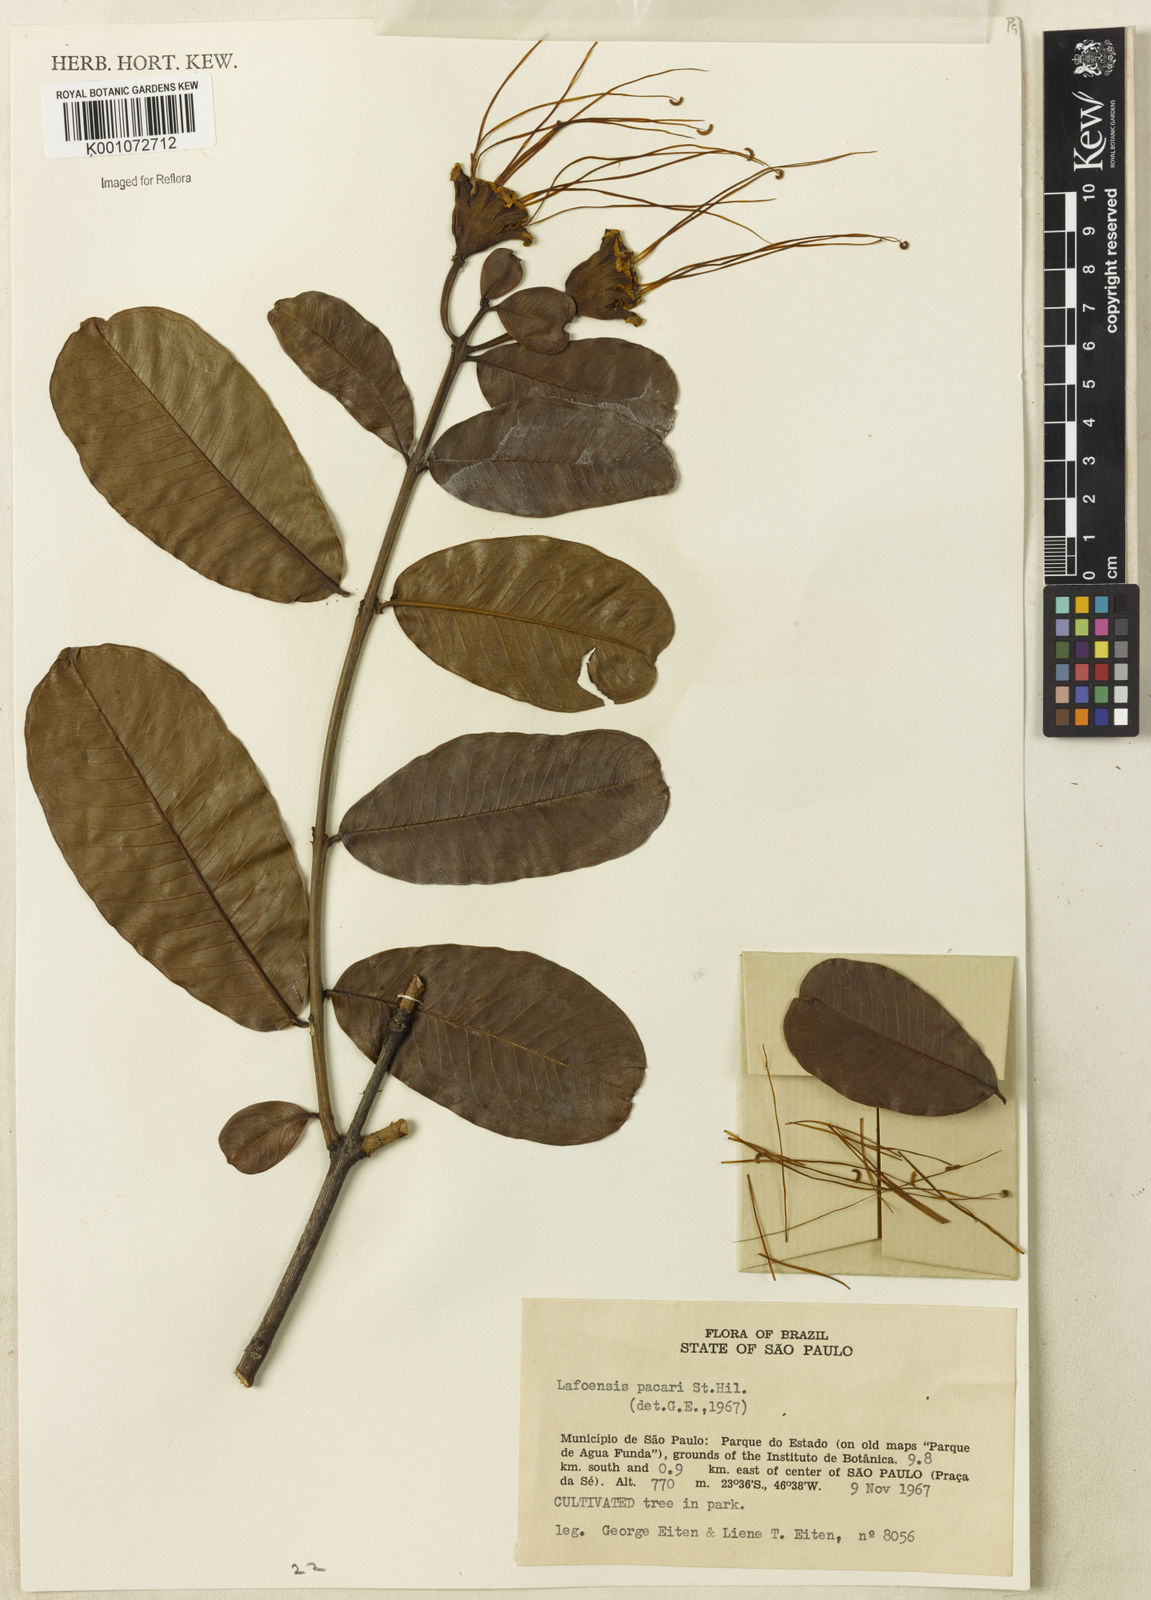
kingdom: Plantae
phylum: Tracheophyta
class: Magnoliopsida
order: Myrtales
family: Lythraceae
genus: Lafoensia
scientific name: Lafoensia pacari
